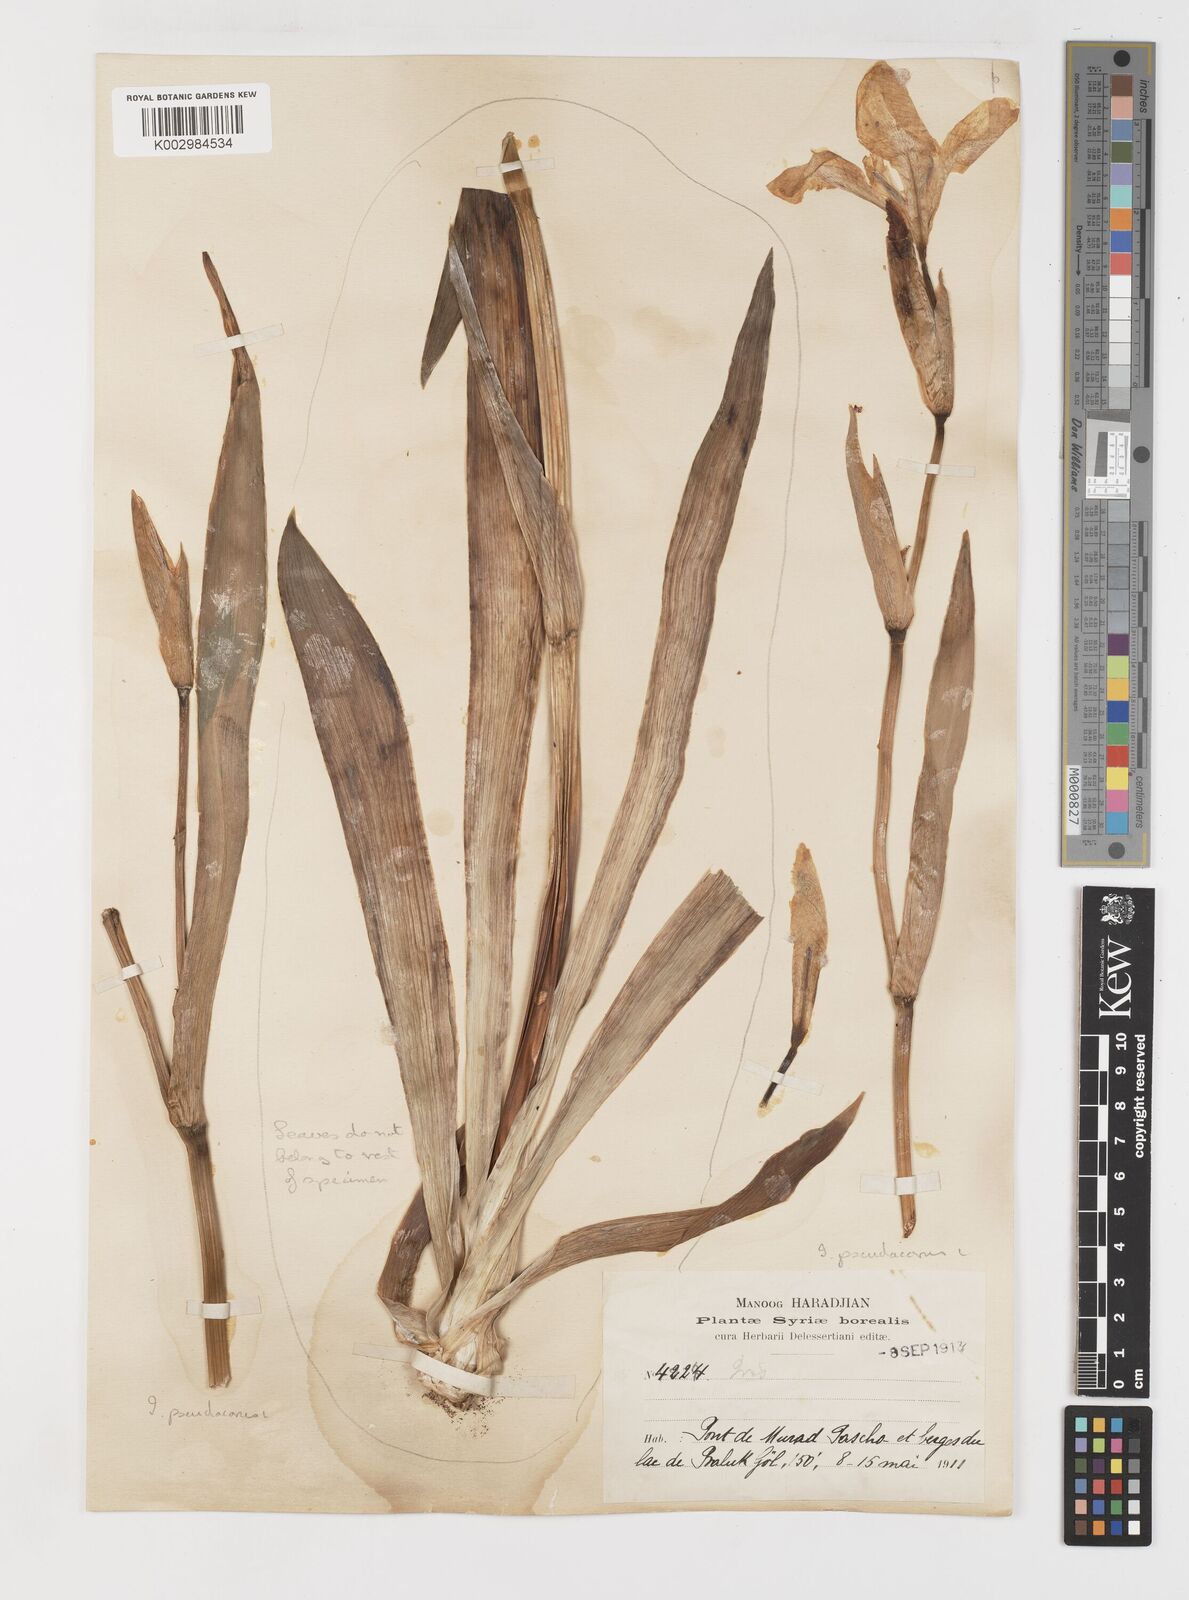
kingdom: Plantae
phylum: Tracheophyta
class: Liliopsida
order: Asparagales
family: Iridaceae
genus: Iris
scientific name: Iris pseudacorus
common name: Yellow flag
